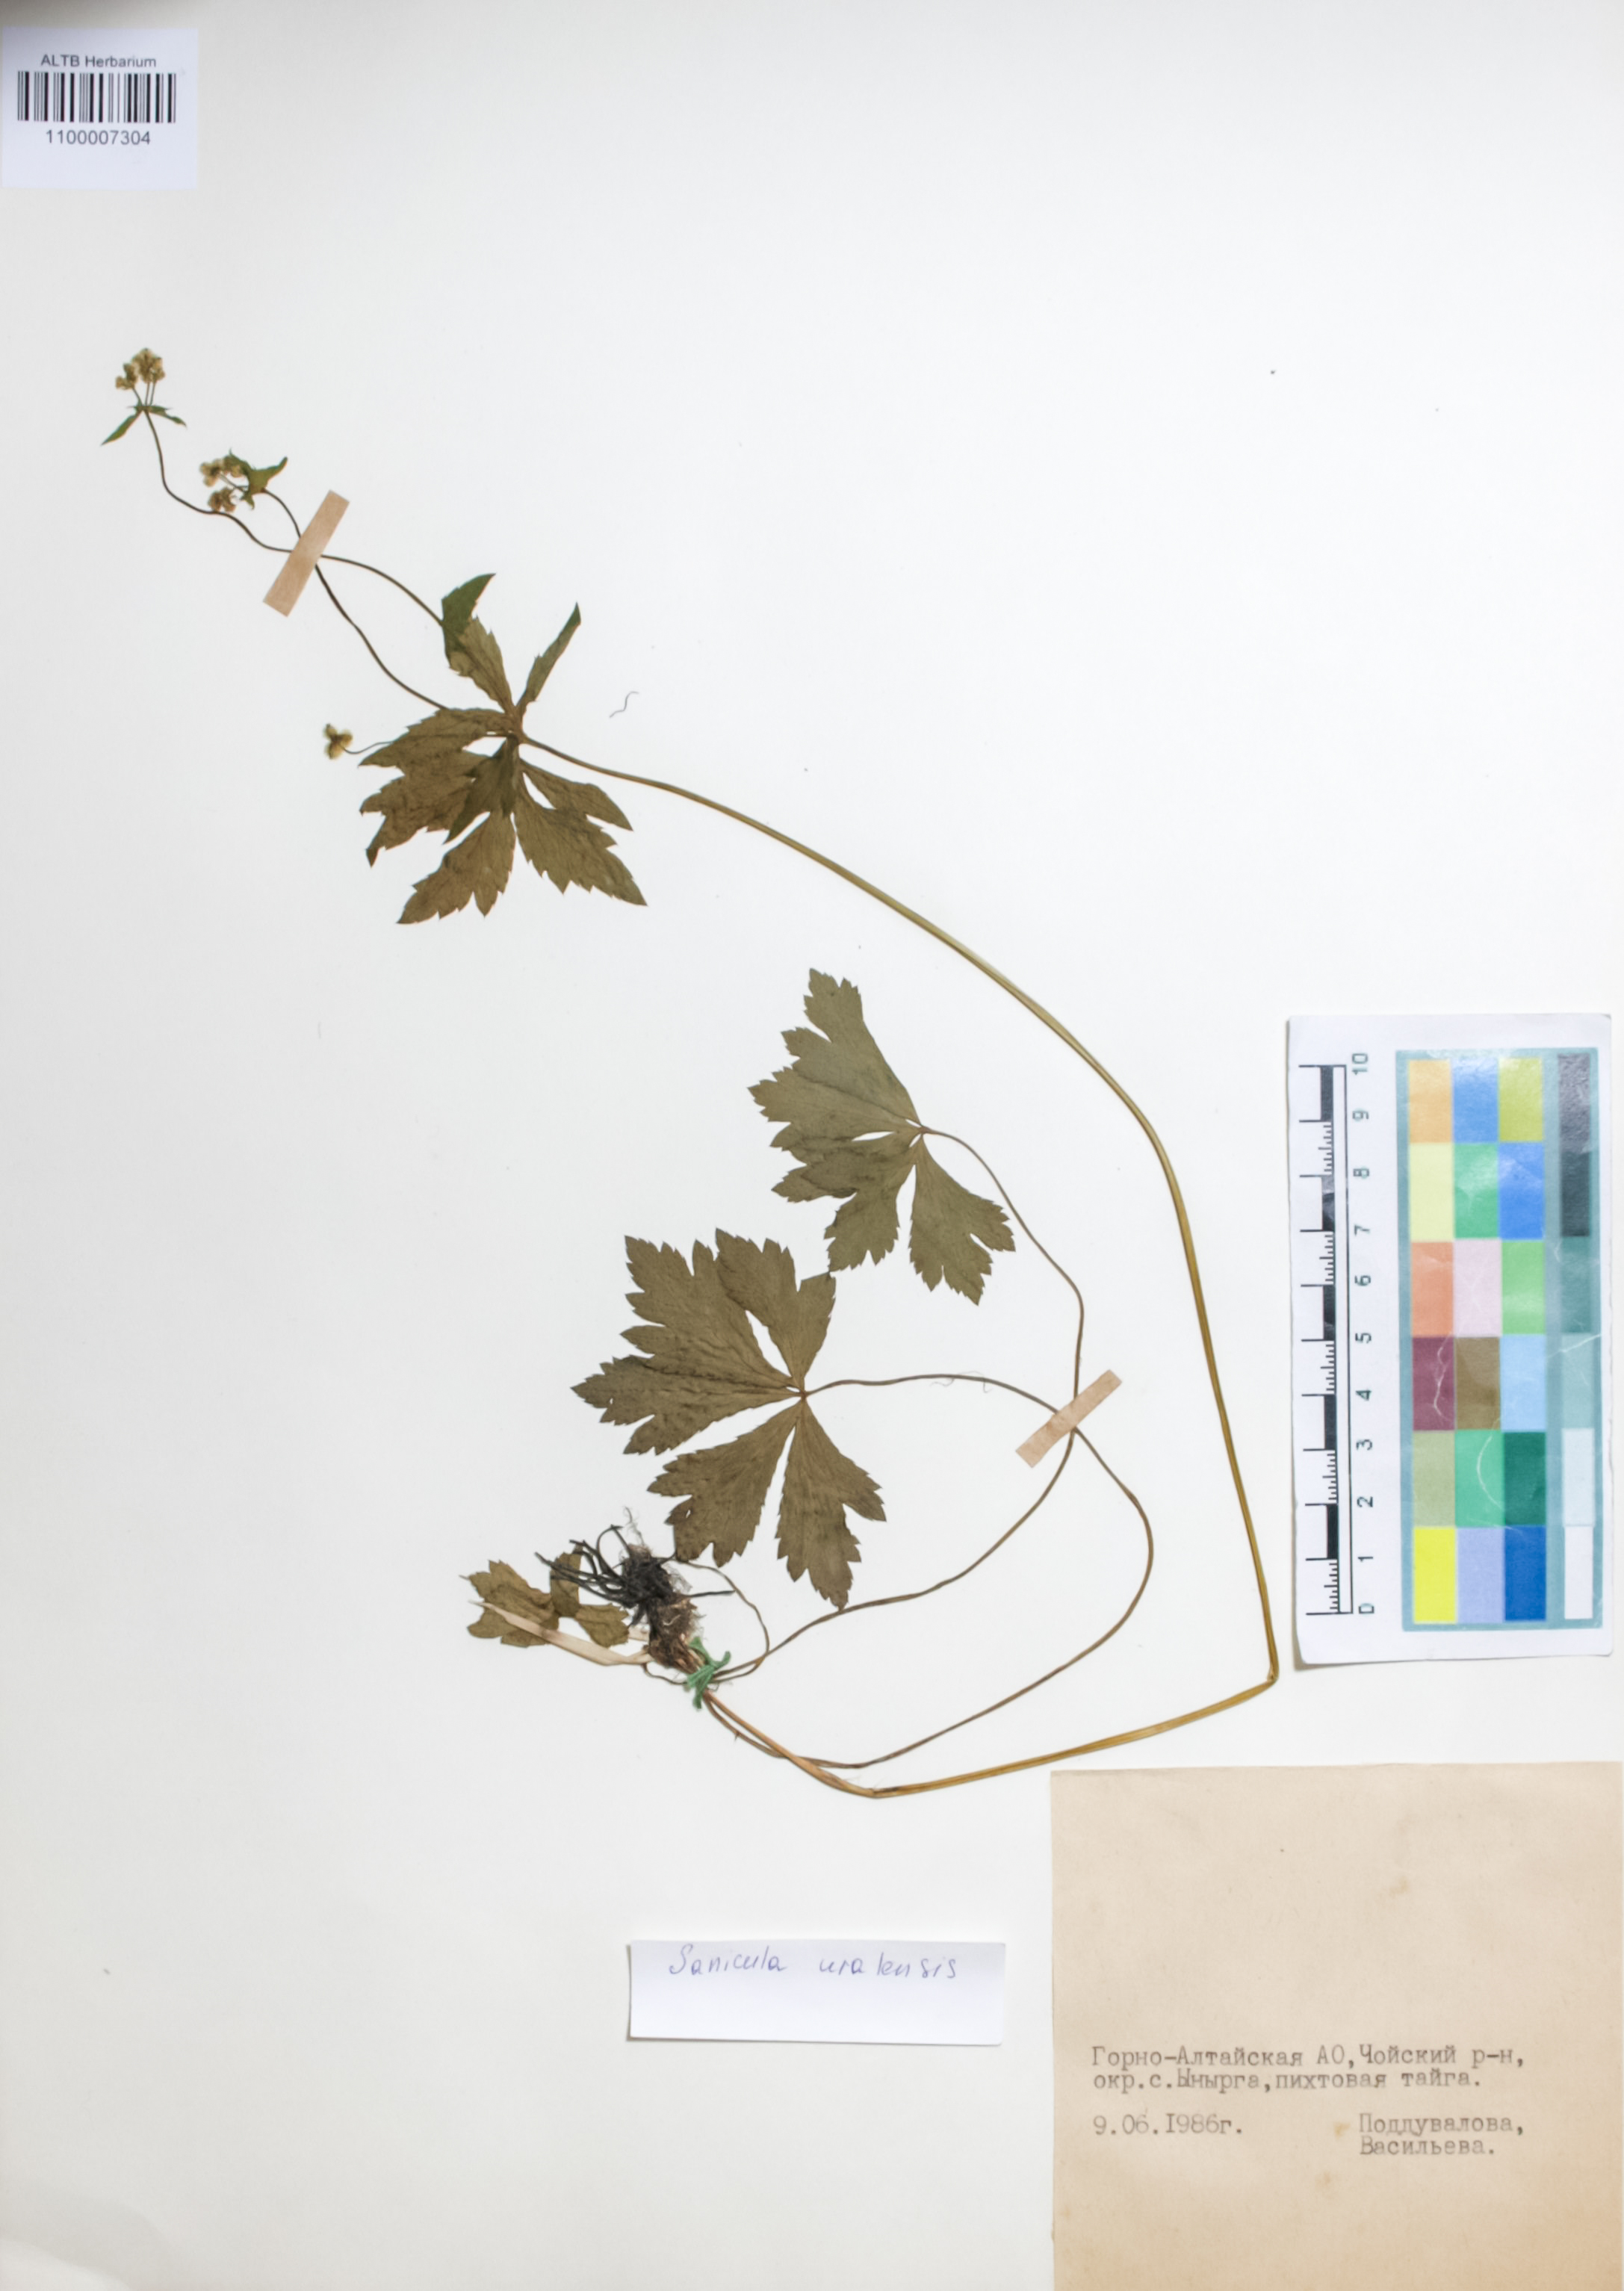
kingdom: Plantae
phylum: Tracheophyta
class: Magnoliopsida
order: Apiales
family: Apiaceae
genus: Sanicula
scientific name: Sanicula giraldii
